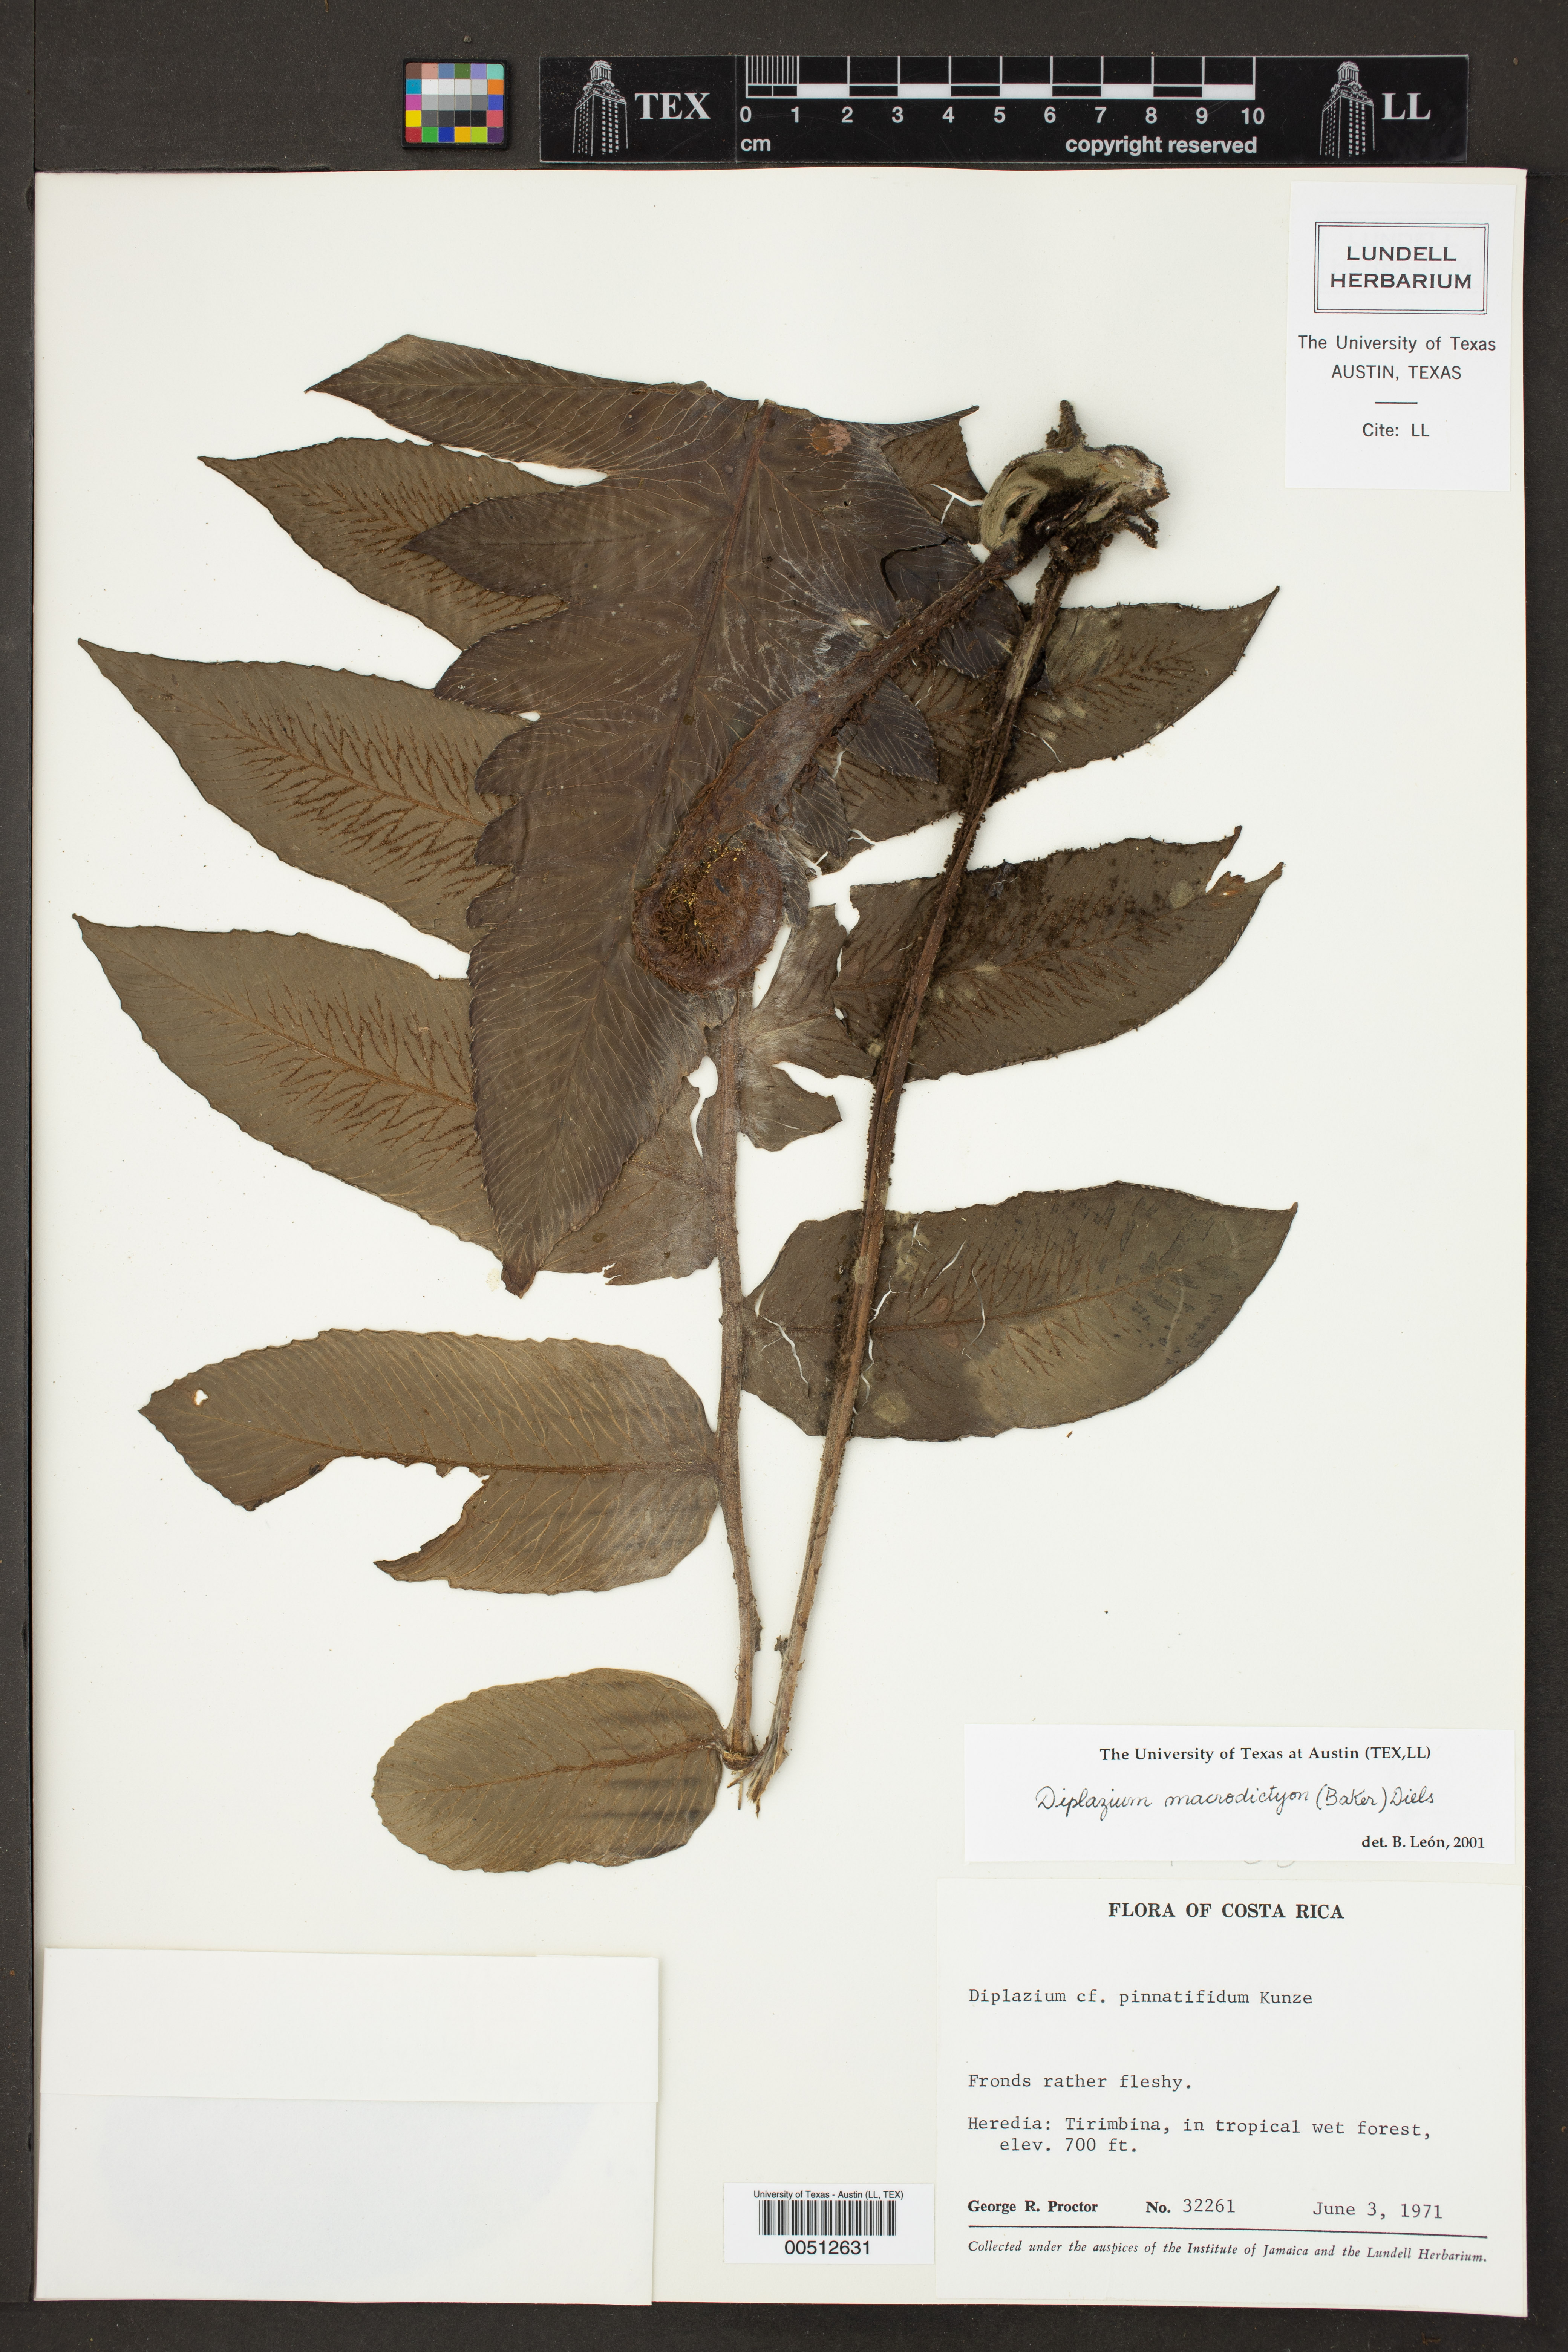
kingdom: Plantae
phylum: Tracheophyta
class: Polypodiopsida
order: Polypodiales
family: Athyriaceae
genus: Diplazium
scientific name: Diplazium macrodictyon
